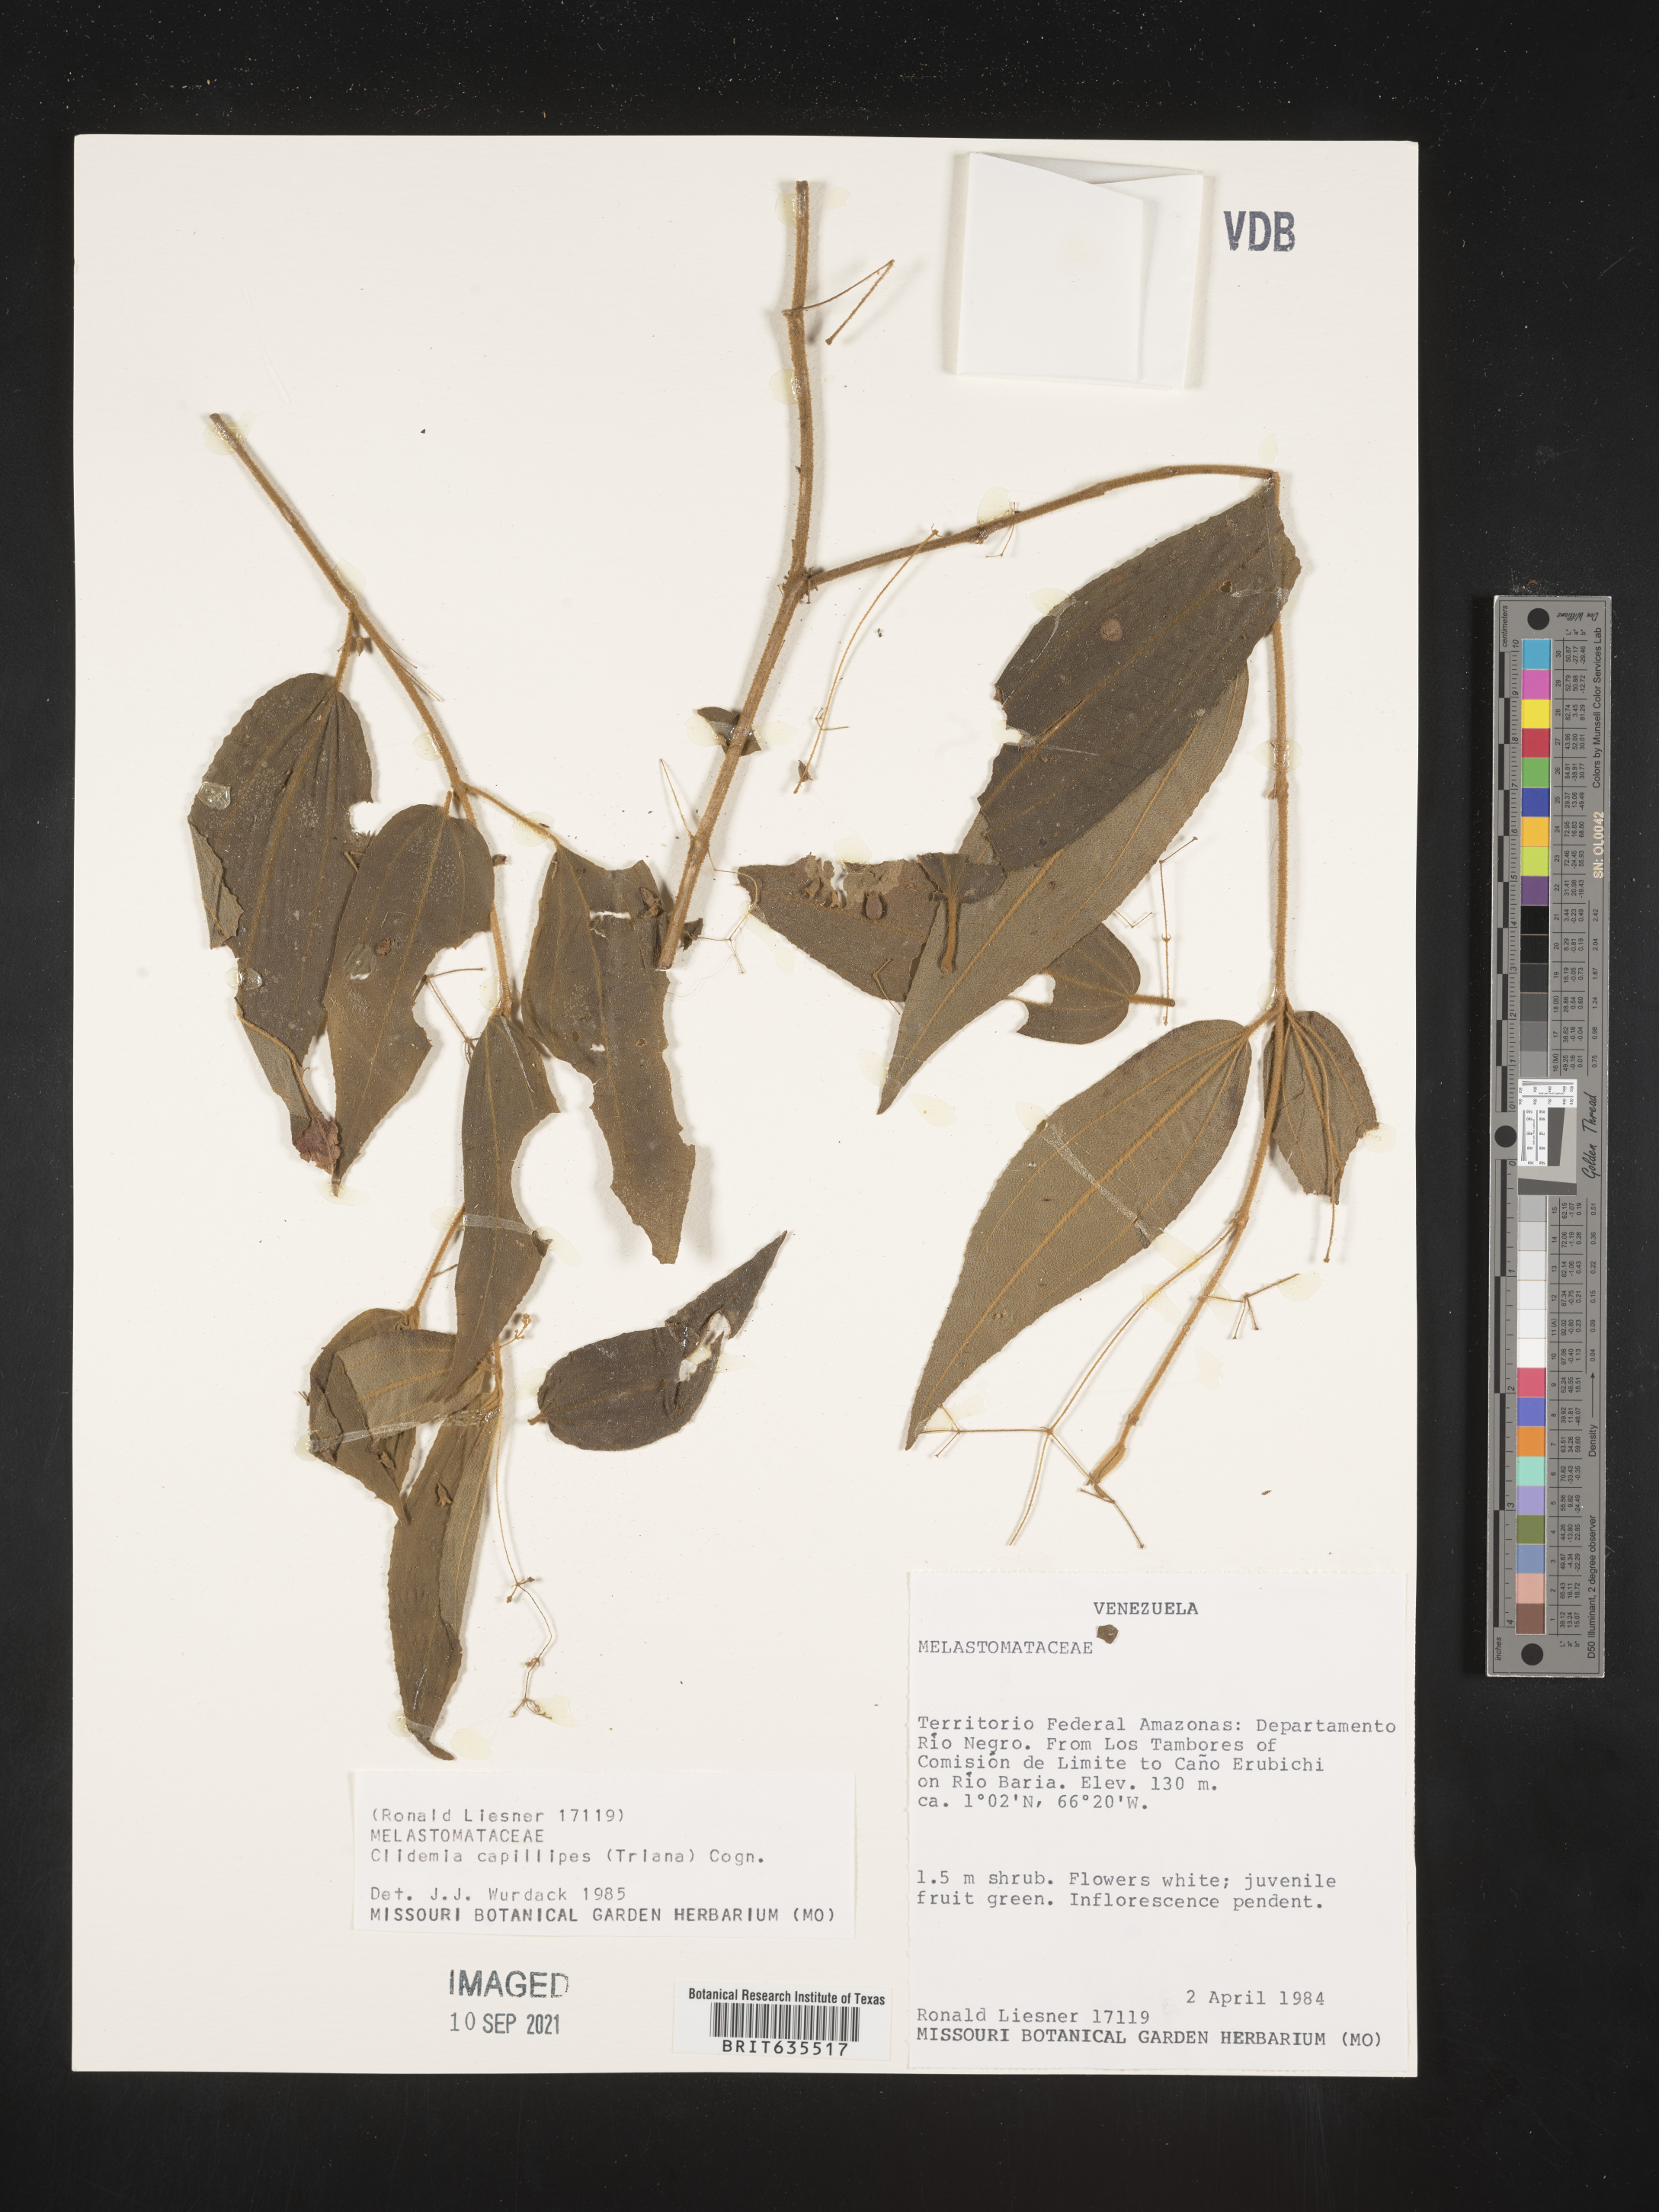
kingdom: Plantae
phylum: Tracheophyta
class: Magnoliopsida
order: Myrtales
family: Melastomataceae
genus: Miconia
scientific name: Miconia
